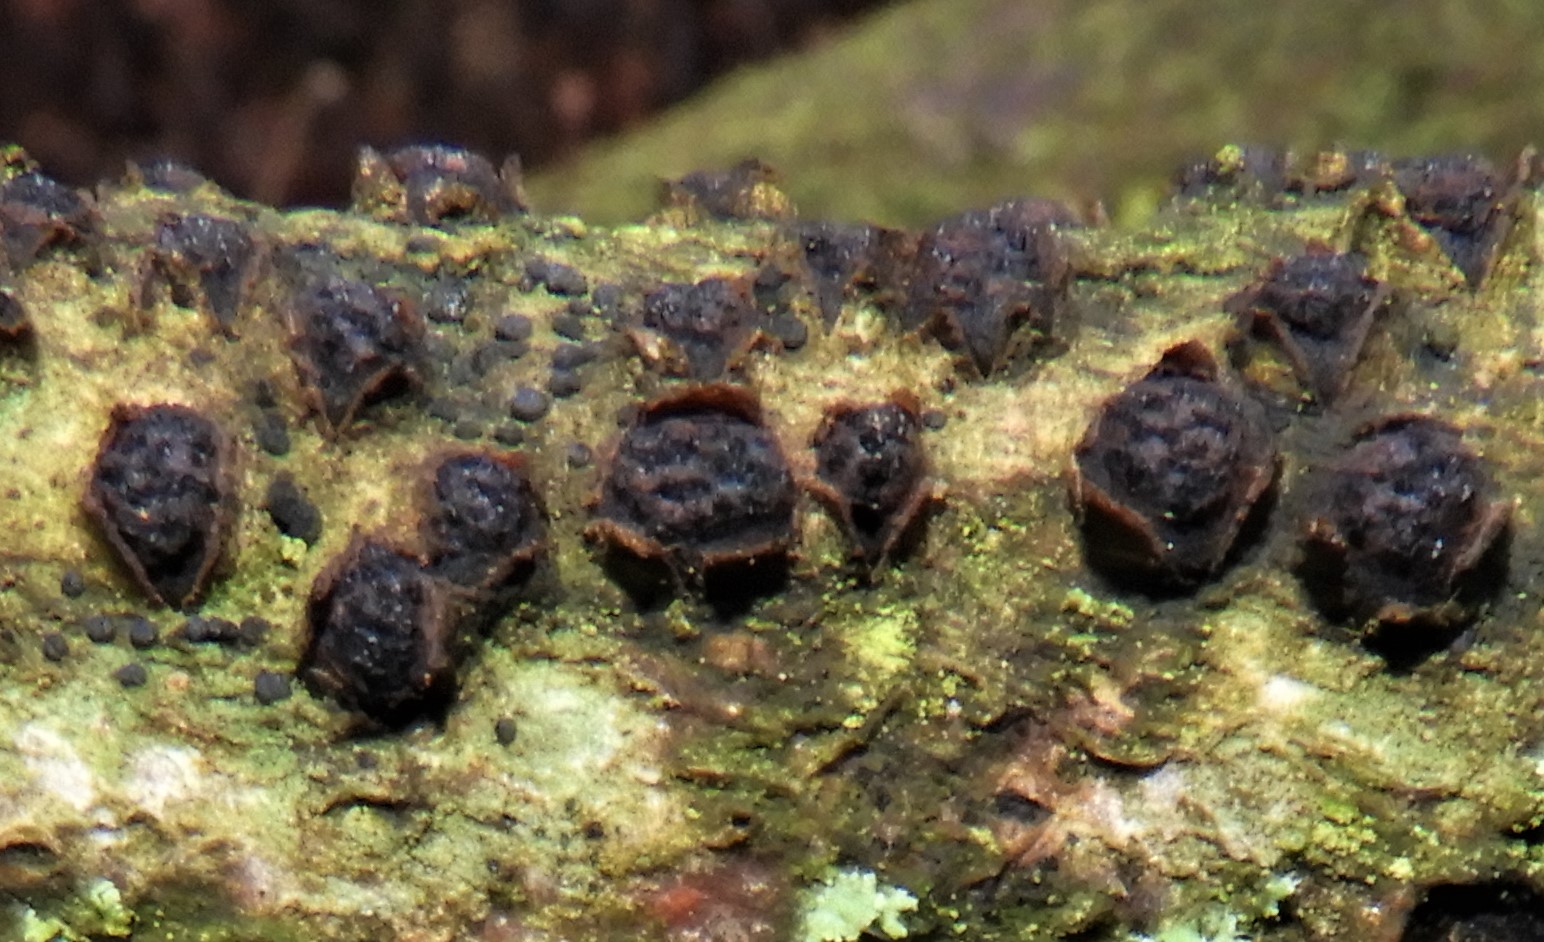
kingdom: Fungi
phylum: Ascomycota
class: Sordariomycetes
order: Sordariales
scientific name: Sordariales
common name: kernesvampordenen
